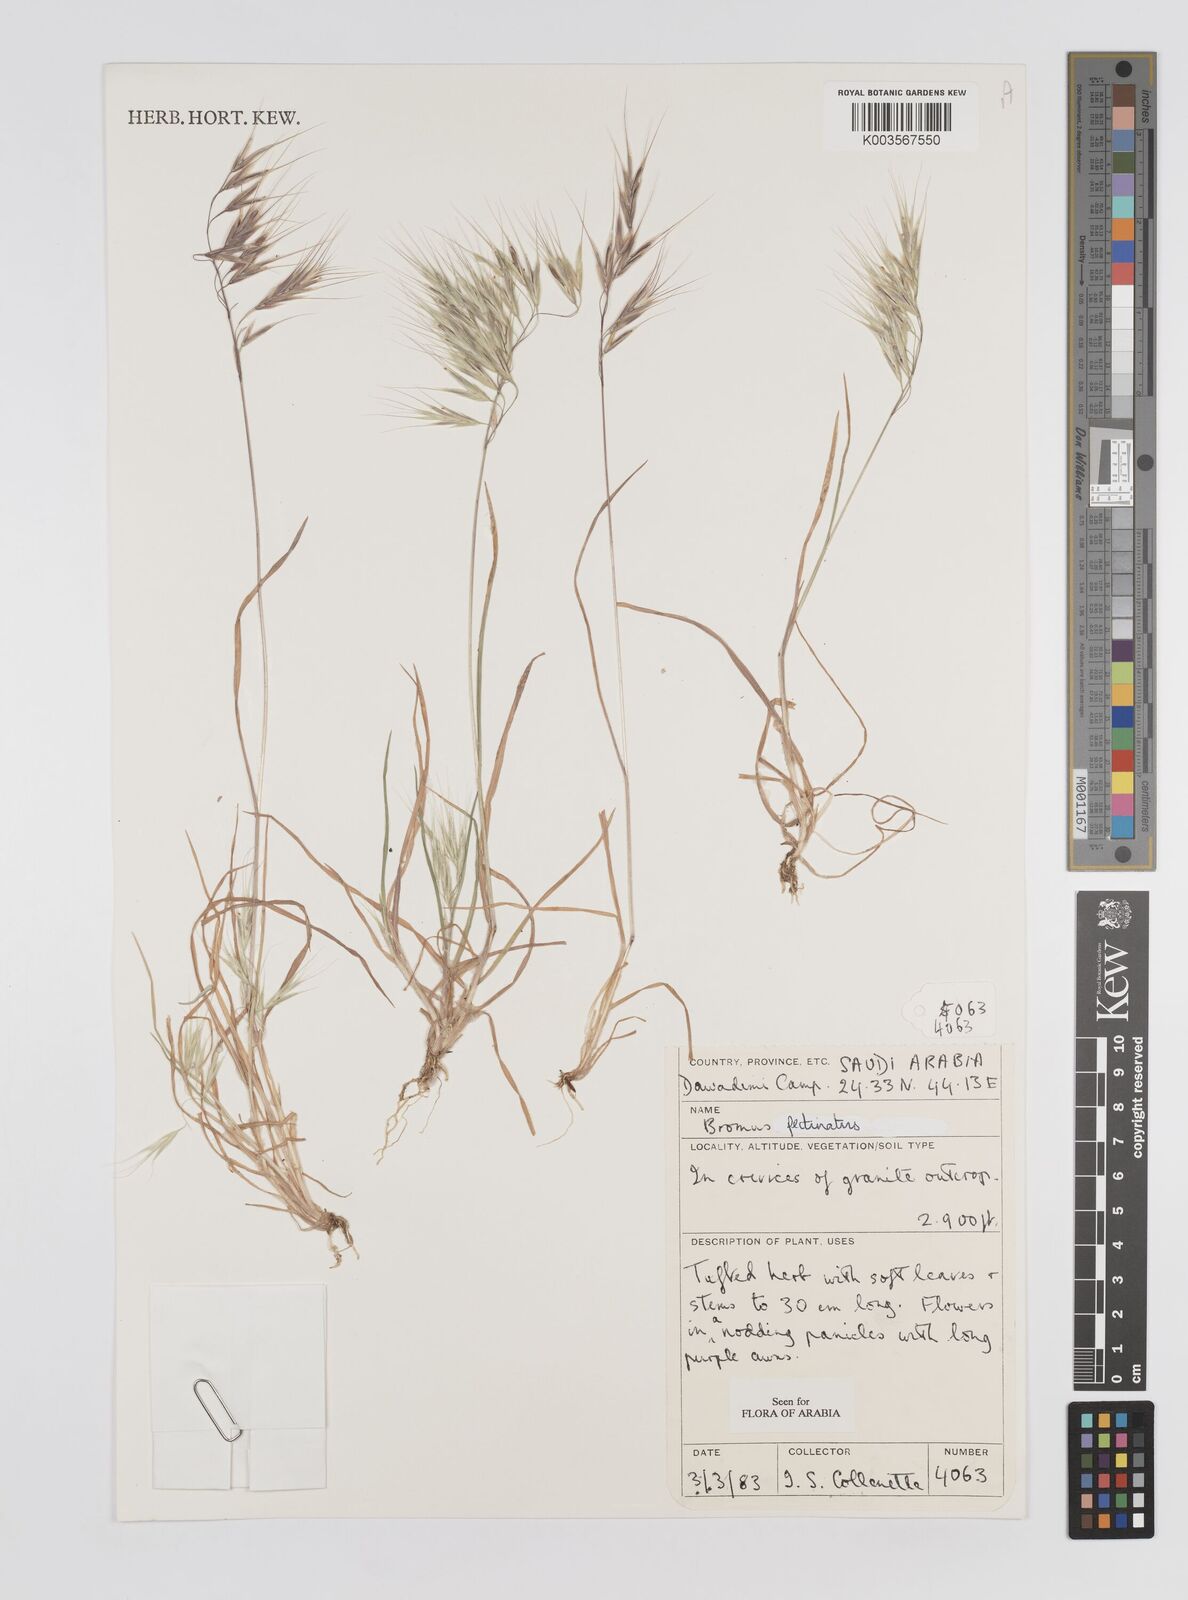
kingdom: Plantae
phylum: Tracheophyta
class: Liliopsida
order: Poales
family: Poaceae
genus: Bromus
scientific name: Bromus pectinatus
